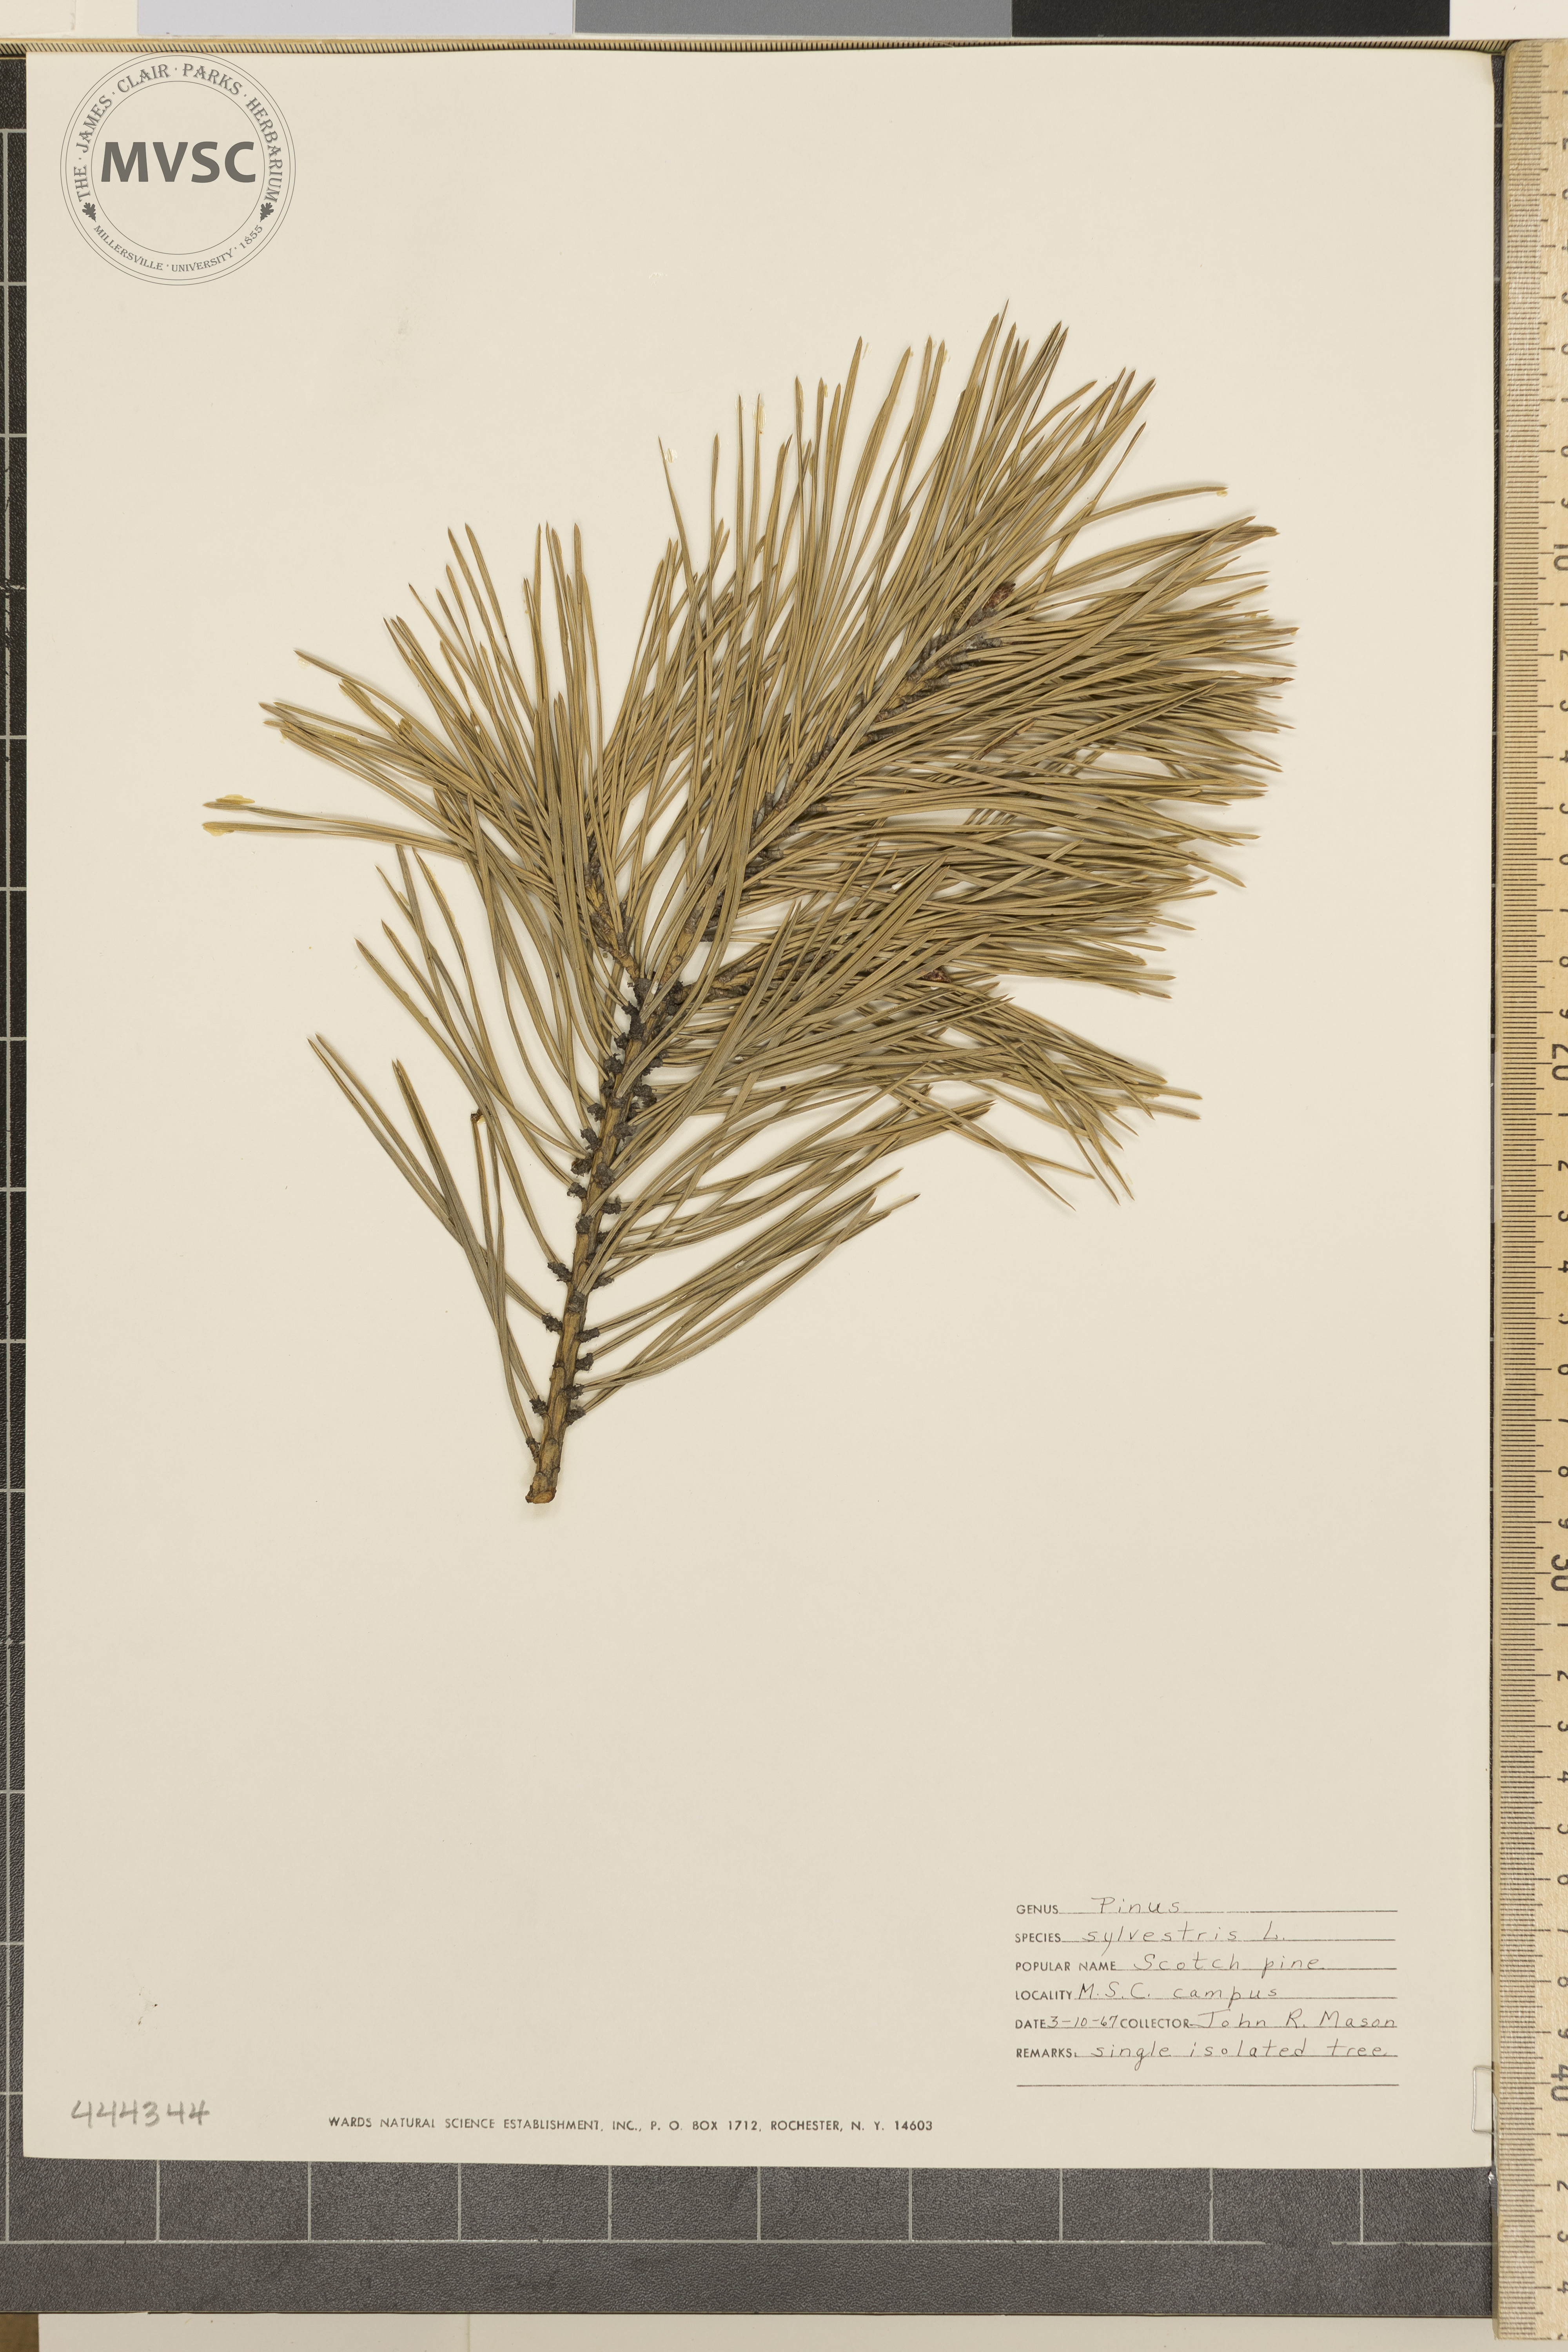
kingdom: Plantae
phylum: Tracheophyta
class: Pinopsida
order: Pinales
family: Pinaceae
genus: Pinus
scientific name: Pinus sylvestris
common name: Scotch Pine
